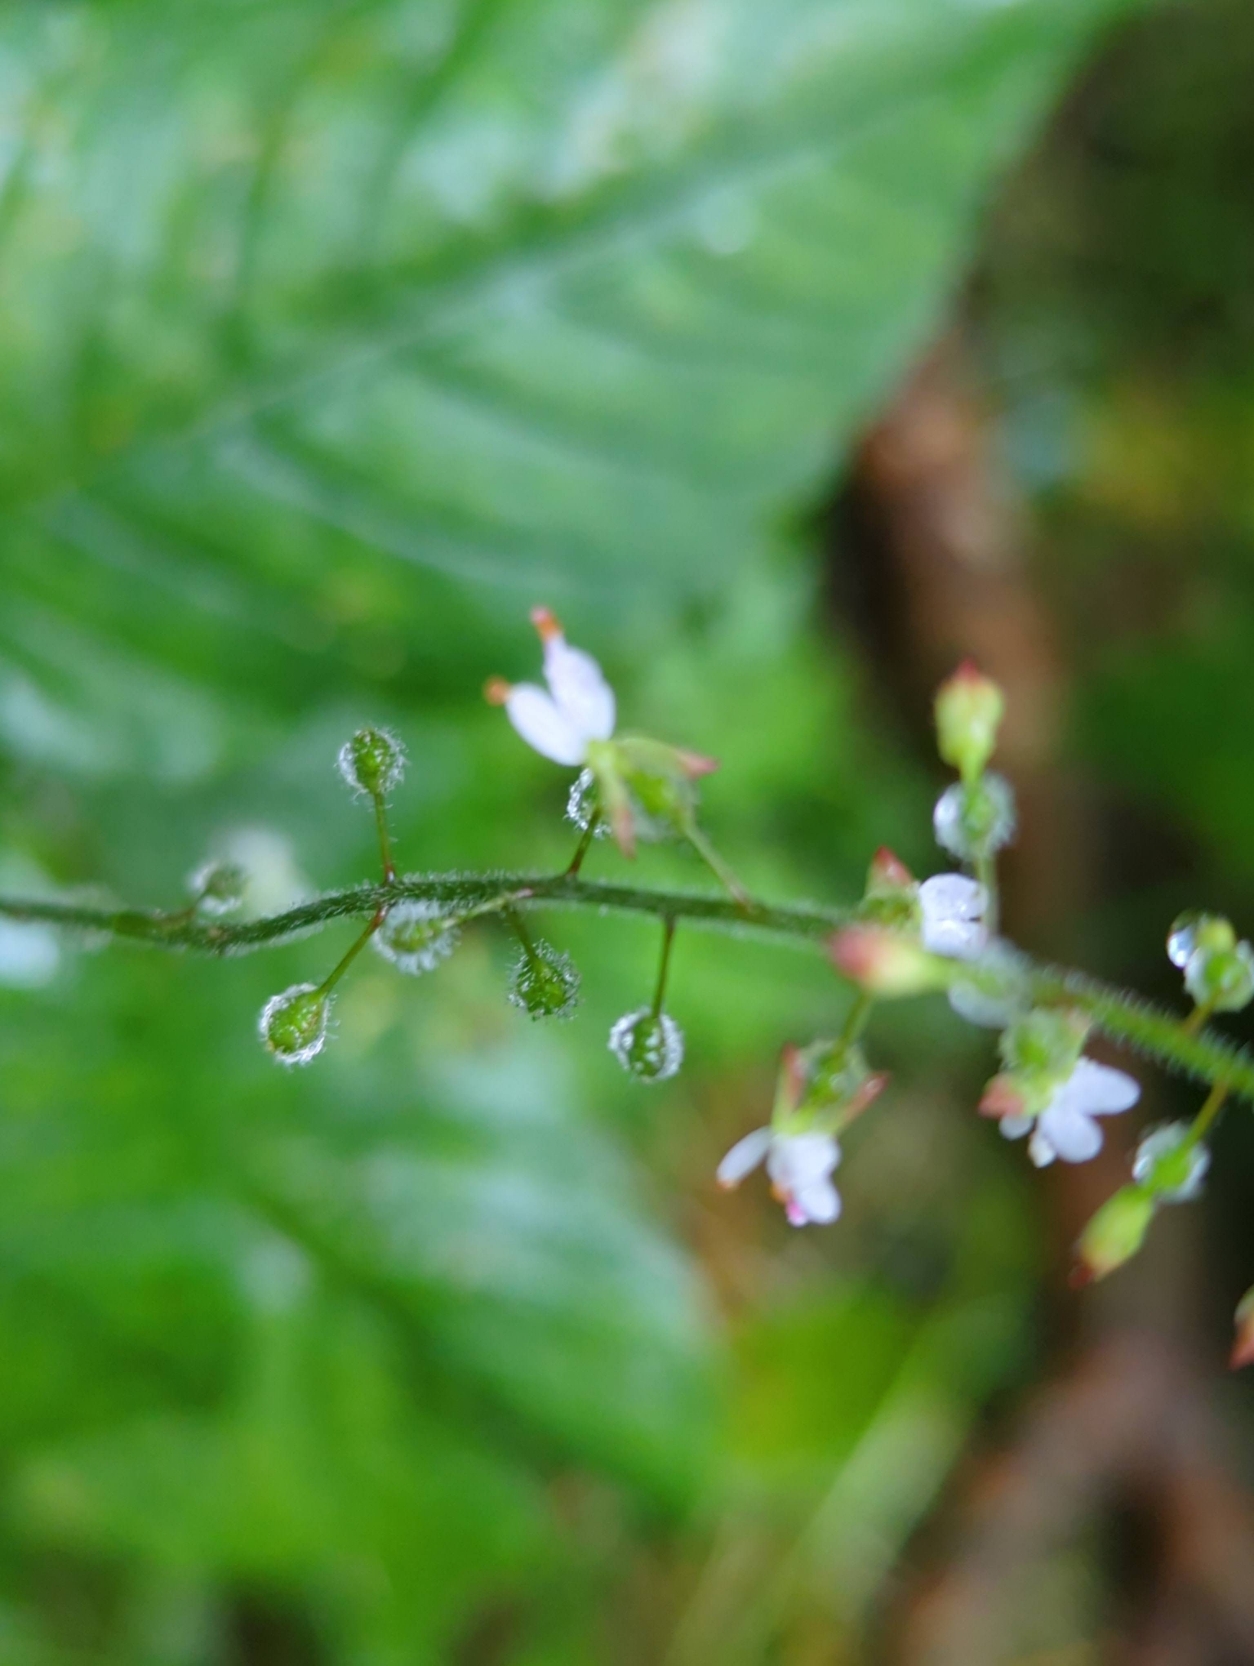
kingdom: Plantae
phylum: Tracheophyta
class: Magnoliopsida
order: Myrtales
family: Onagraceae
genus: Circaea
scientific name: Circaea lutetiana
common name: Dunet steffensurt
